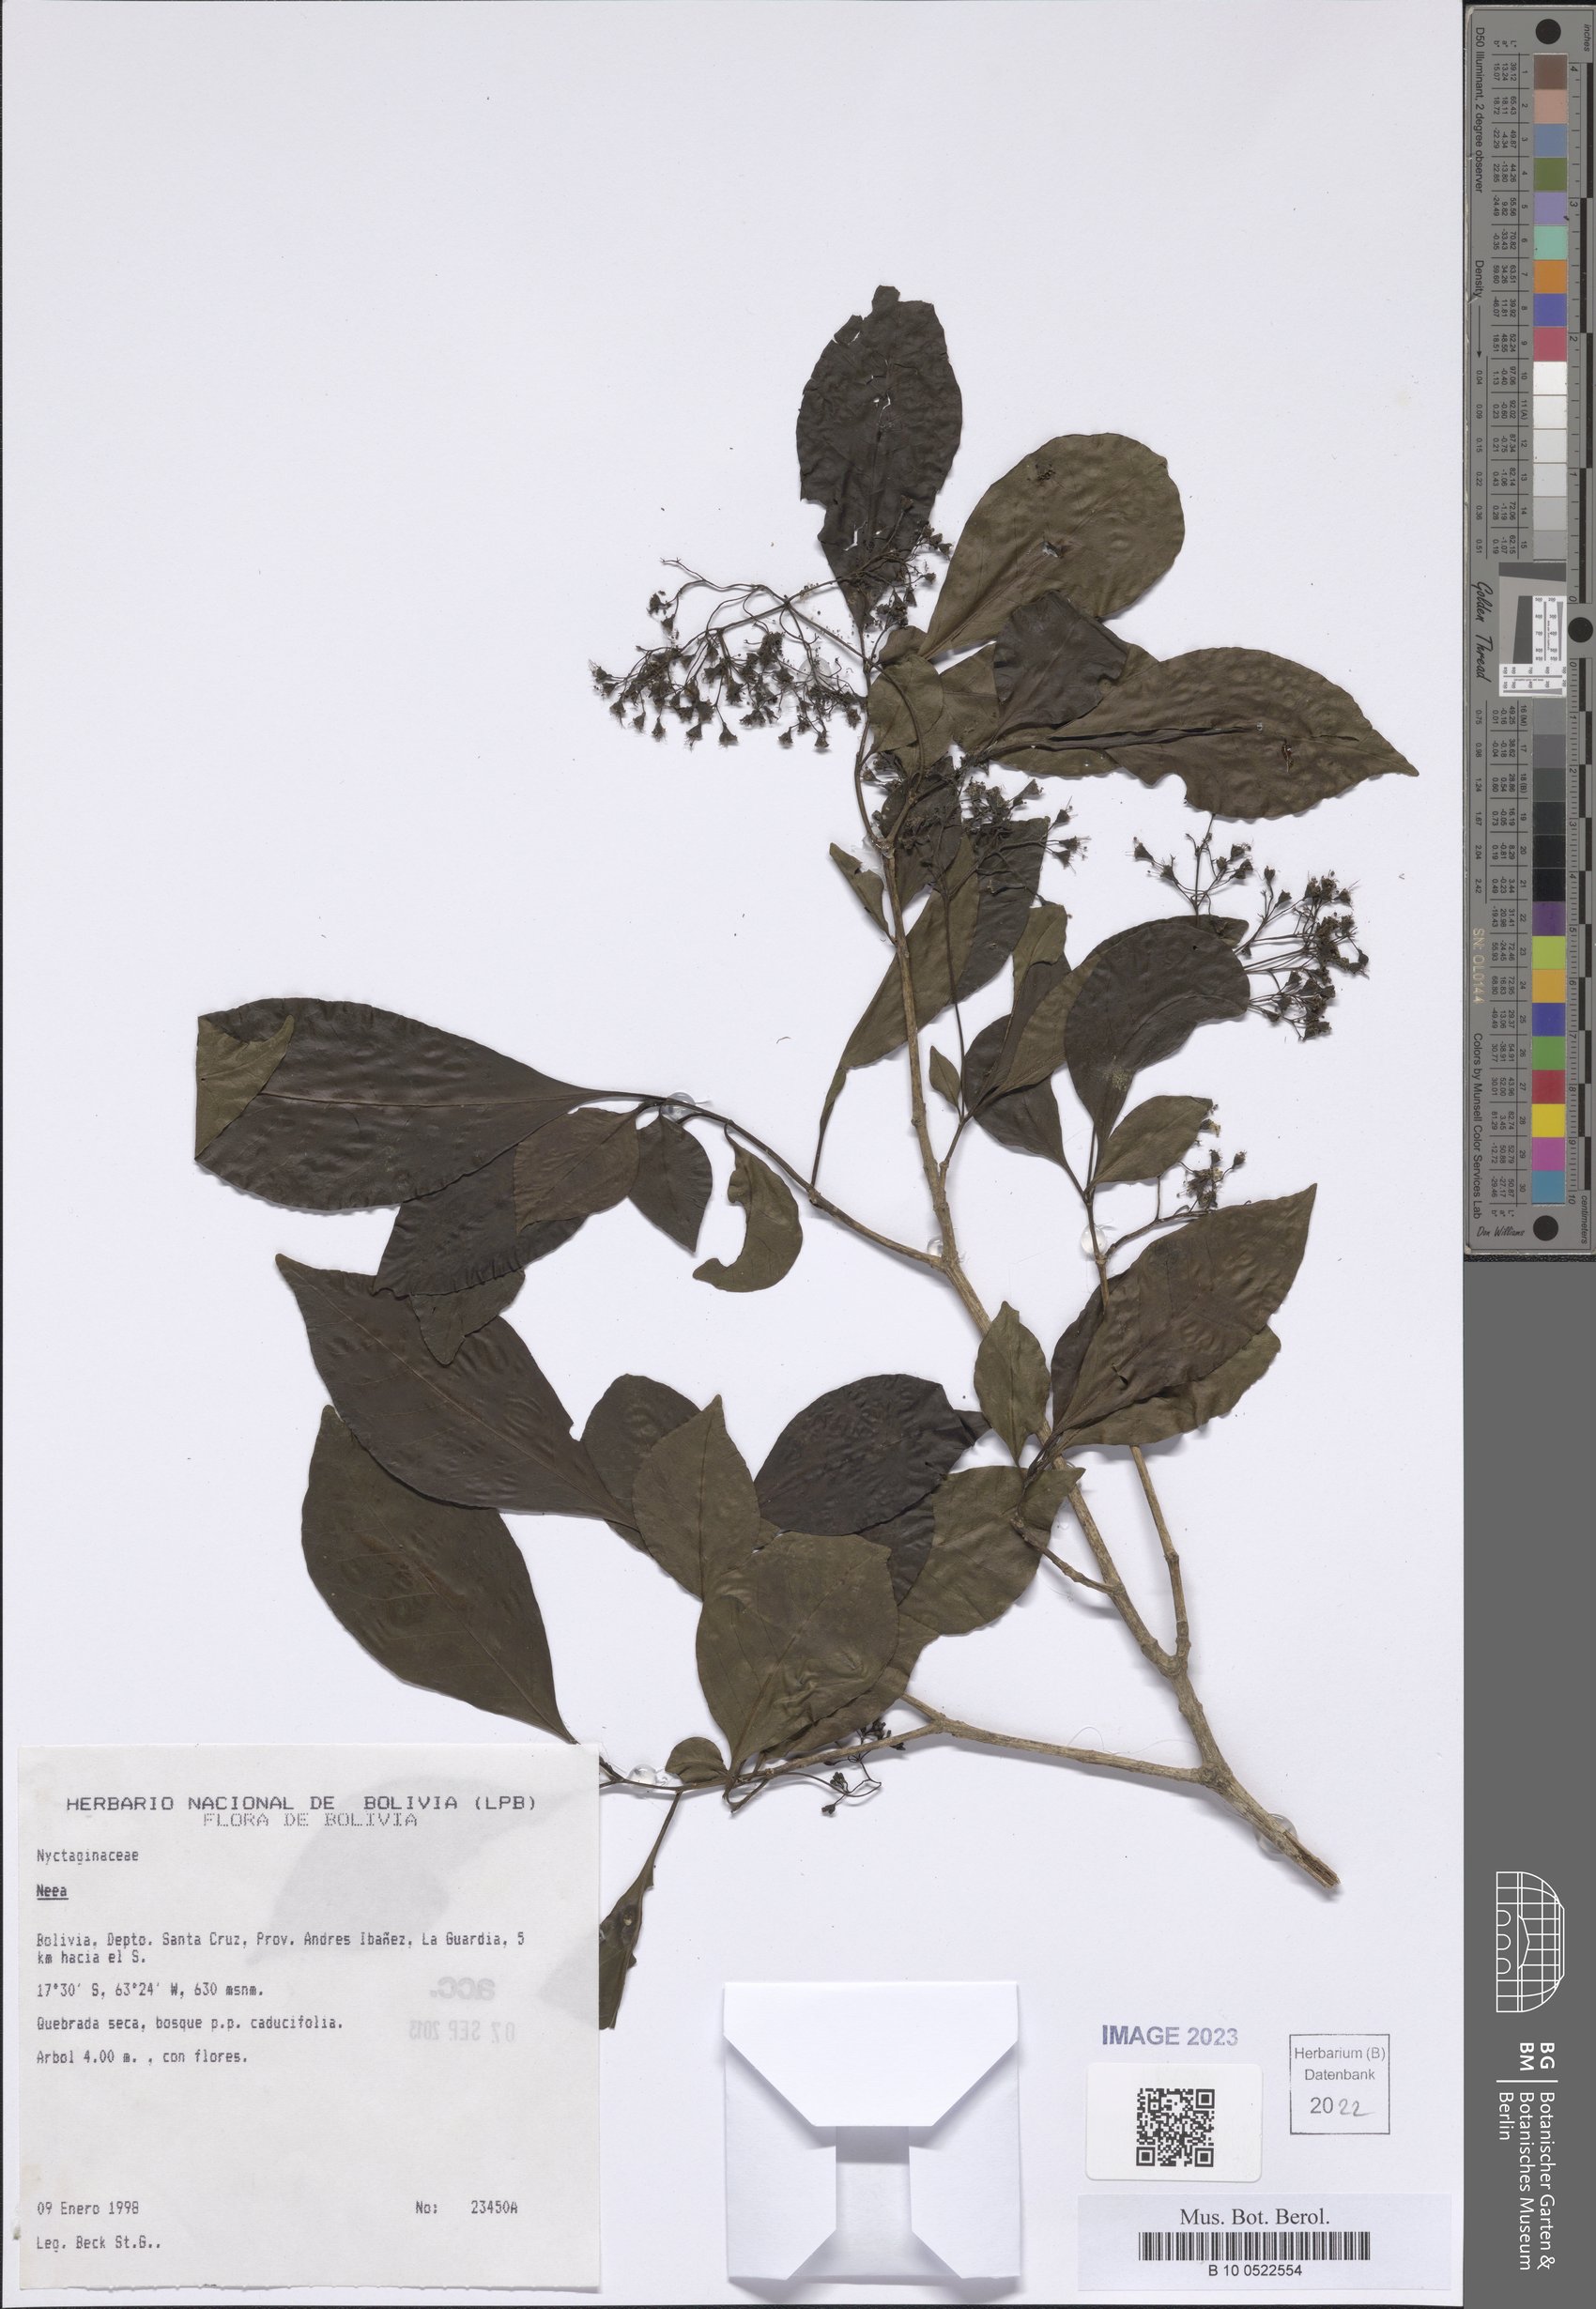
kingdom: Plantae
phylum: Tracheophyta
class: Magnoliopsida
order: Malpighiales
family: Trigoniaceae
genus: Trigonia
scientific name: Trigonia boliviana
